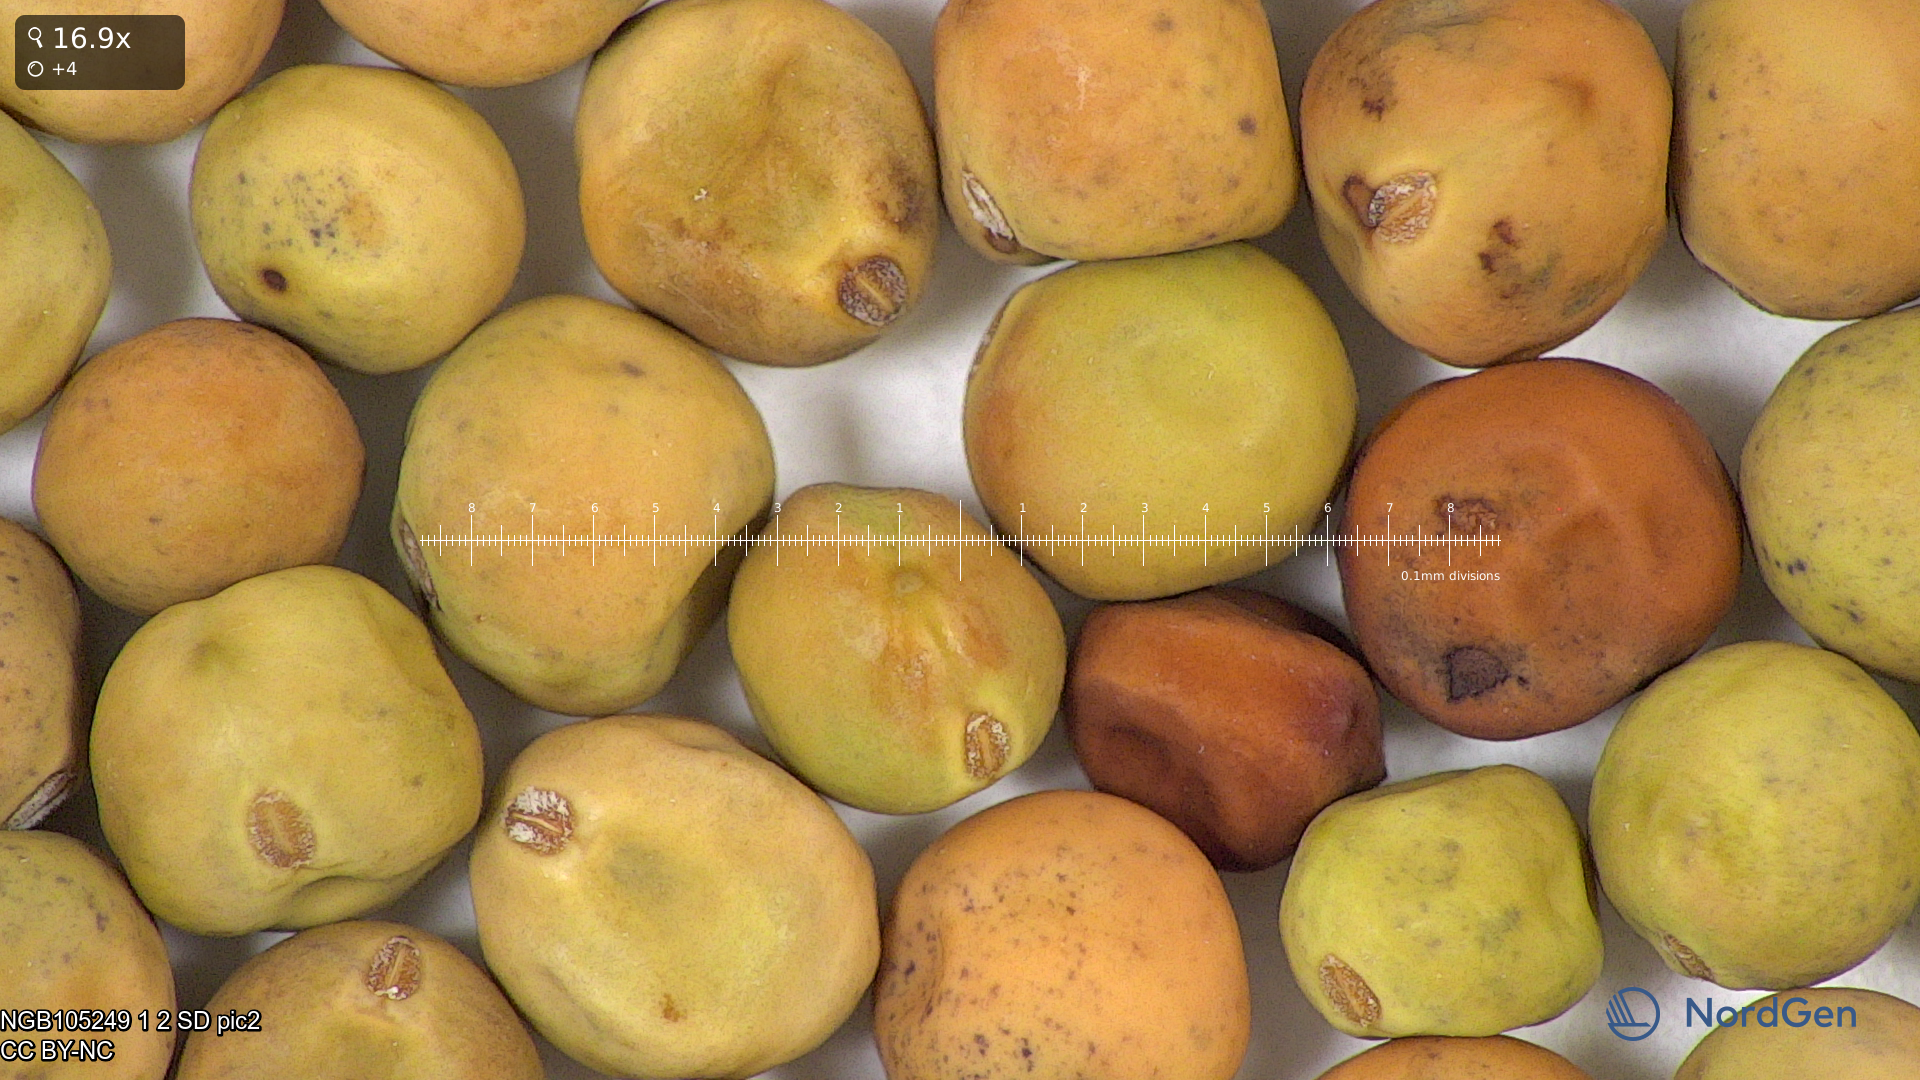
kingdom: Plantae
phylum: Tracheophyta
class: Magnoliopsida
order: Fabales
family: Fabaceae
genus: Lathyrus
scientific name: Lathyrus oleraceus
